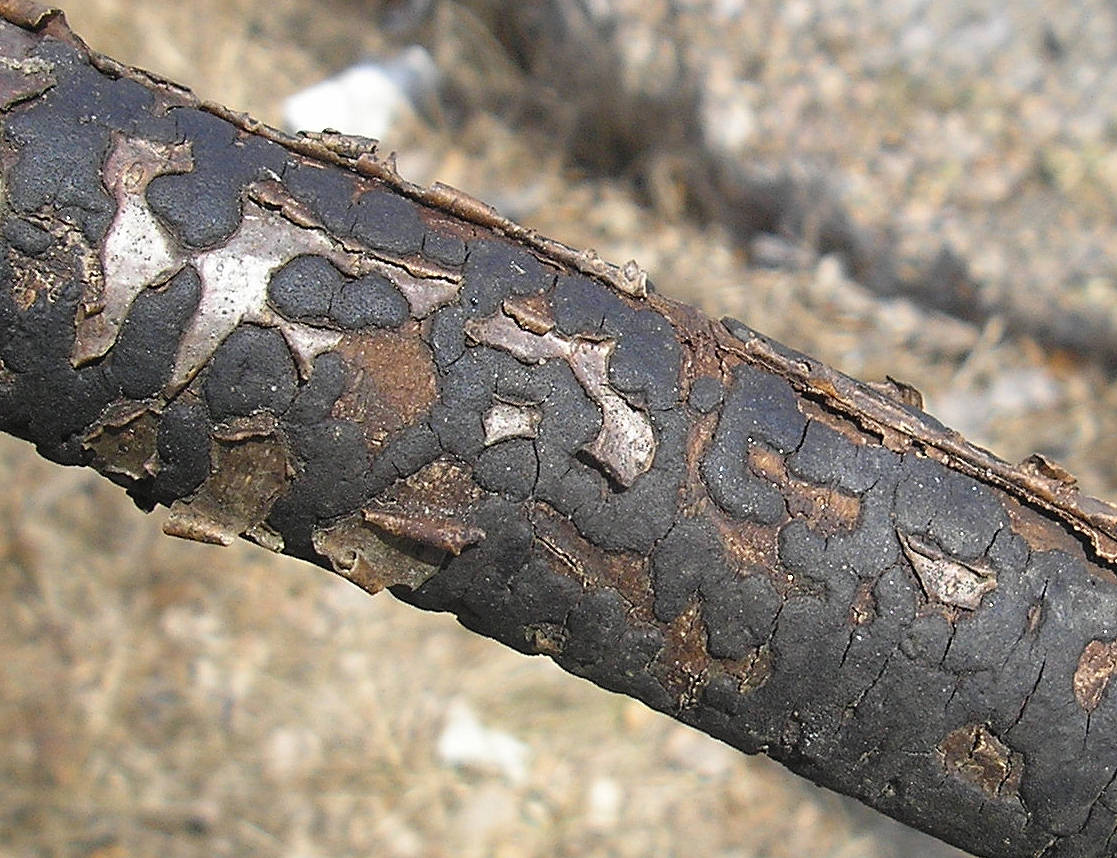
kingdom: Fungi
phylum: Ascomycota
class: Sordariomycetes
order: Xylariales
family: Diatrypaceae
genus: Diatrype
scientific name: Diatrype stigma
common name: udbredt kulskorpe
